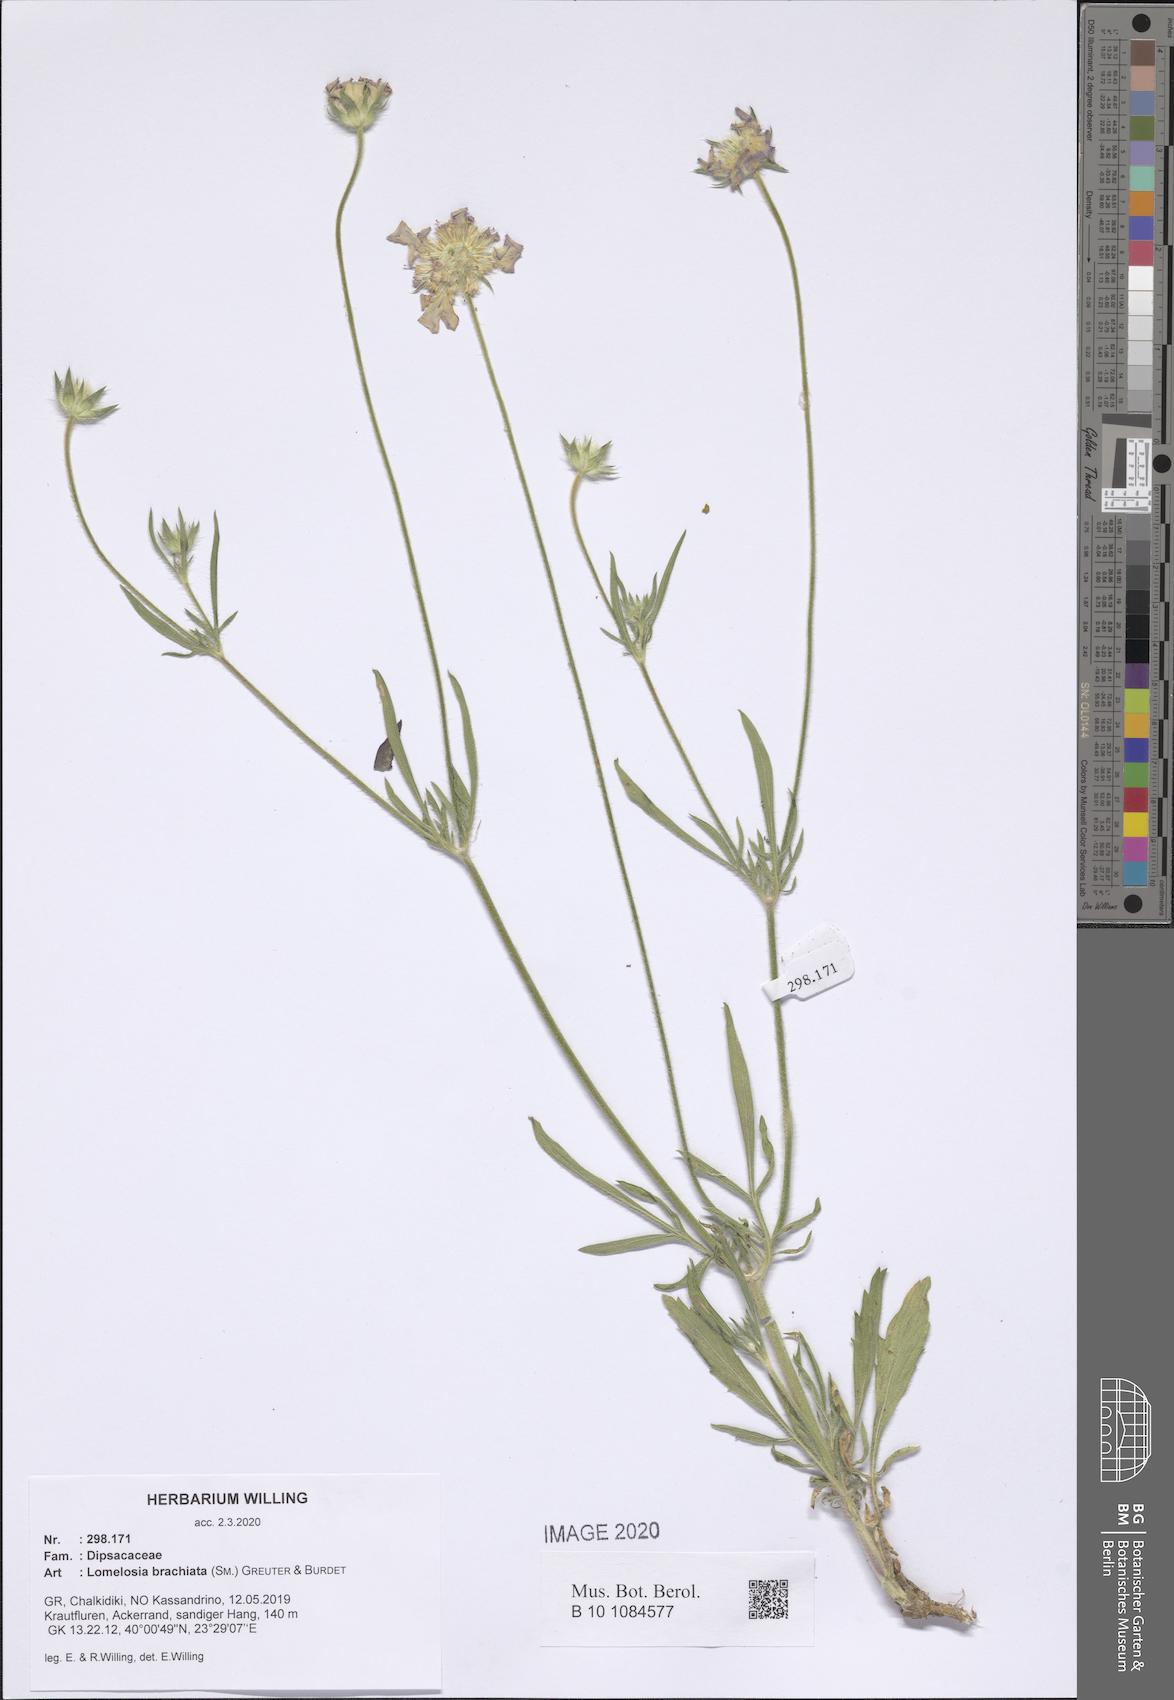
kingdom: Plantae
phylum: Tracheophyta
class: Magnoliopsida
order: Dipsacales
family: Caprifoliaceae
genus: Lomelosia
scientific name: Lomelosia brachiata
